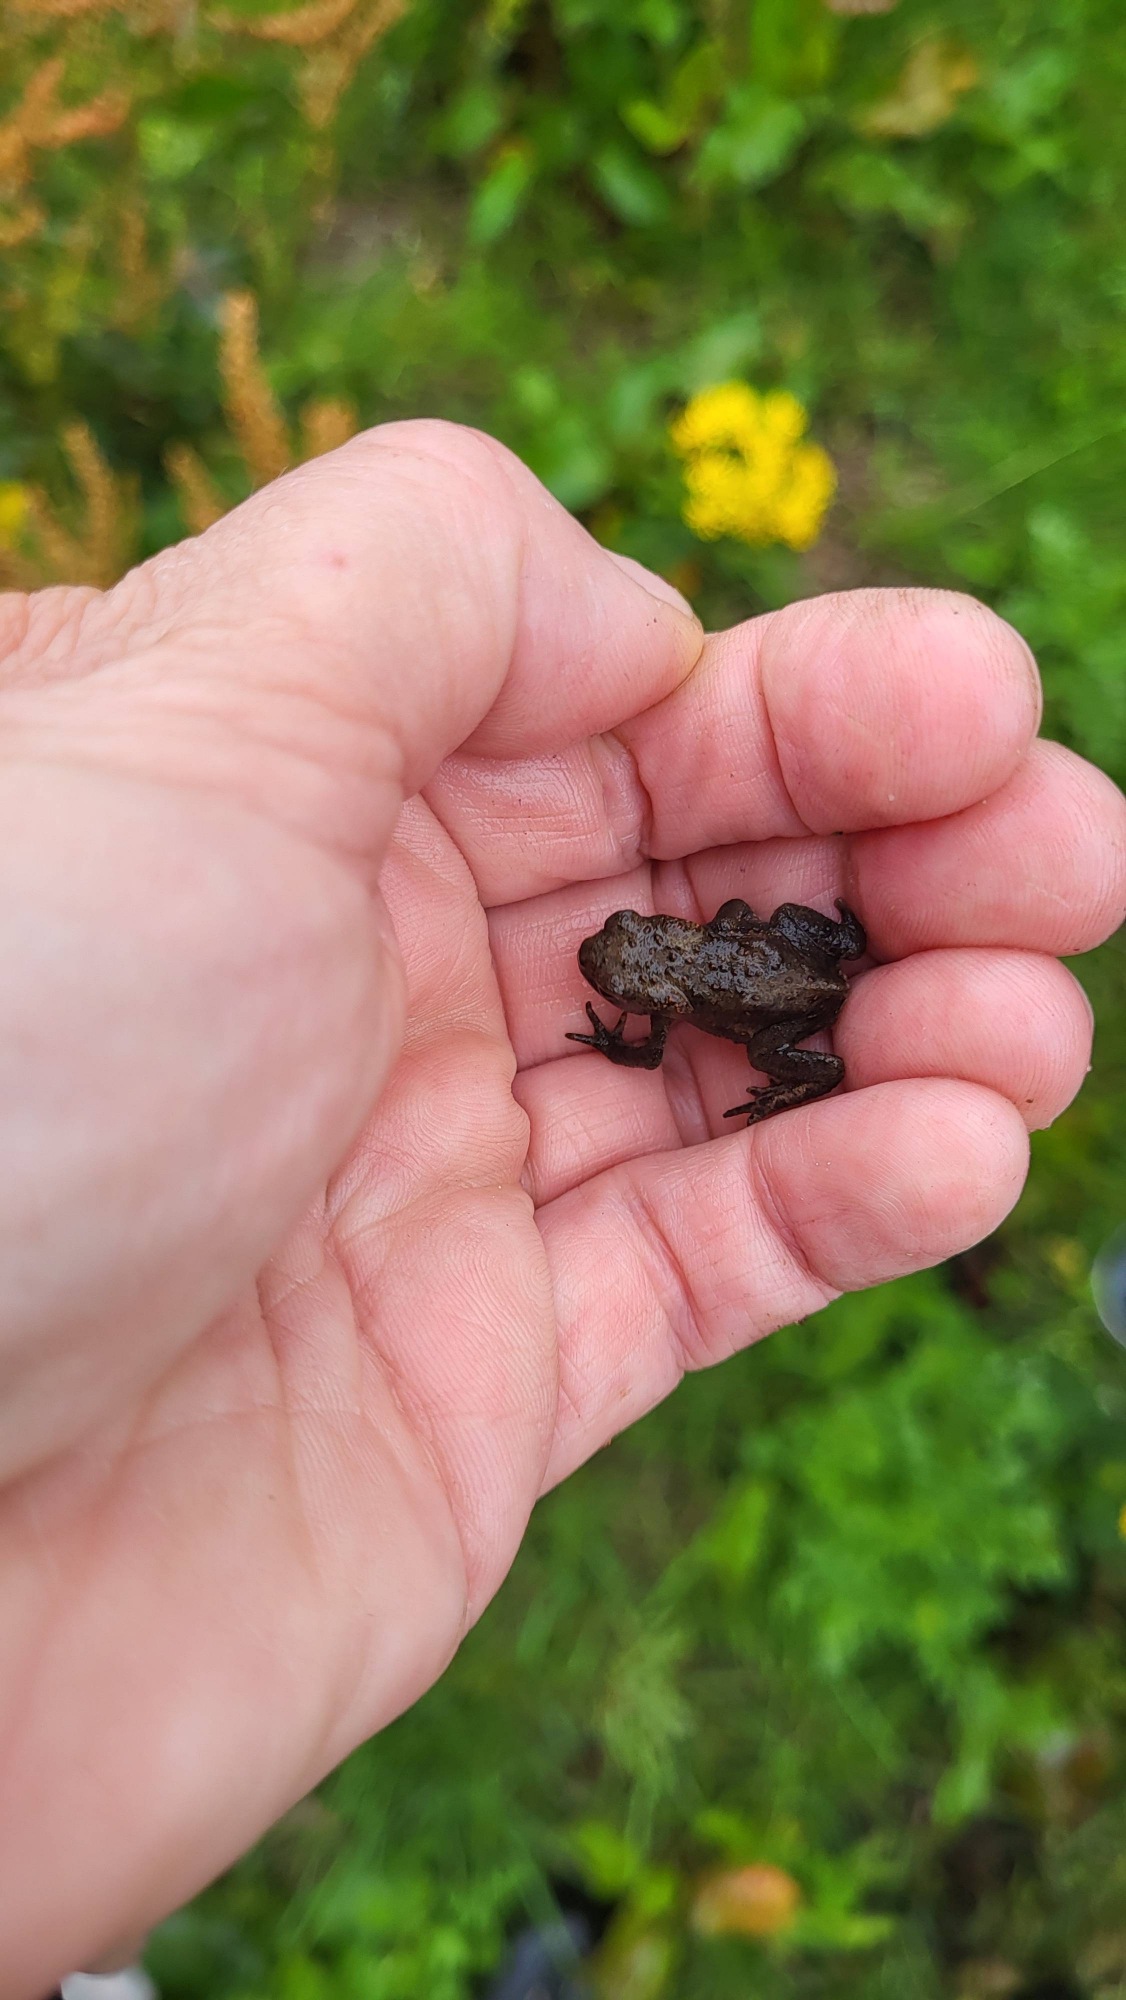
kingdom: Animalia
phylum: Chordata
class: Amphibia
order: Anura
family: Bufonidae
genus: Bufo
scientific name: Bufo bufo
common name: Skrubtudse
